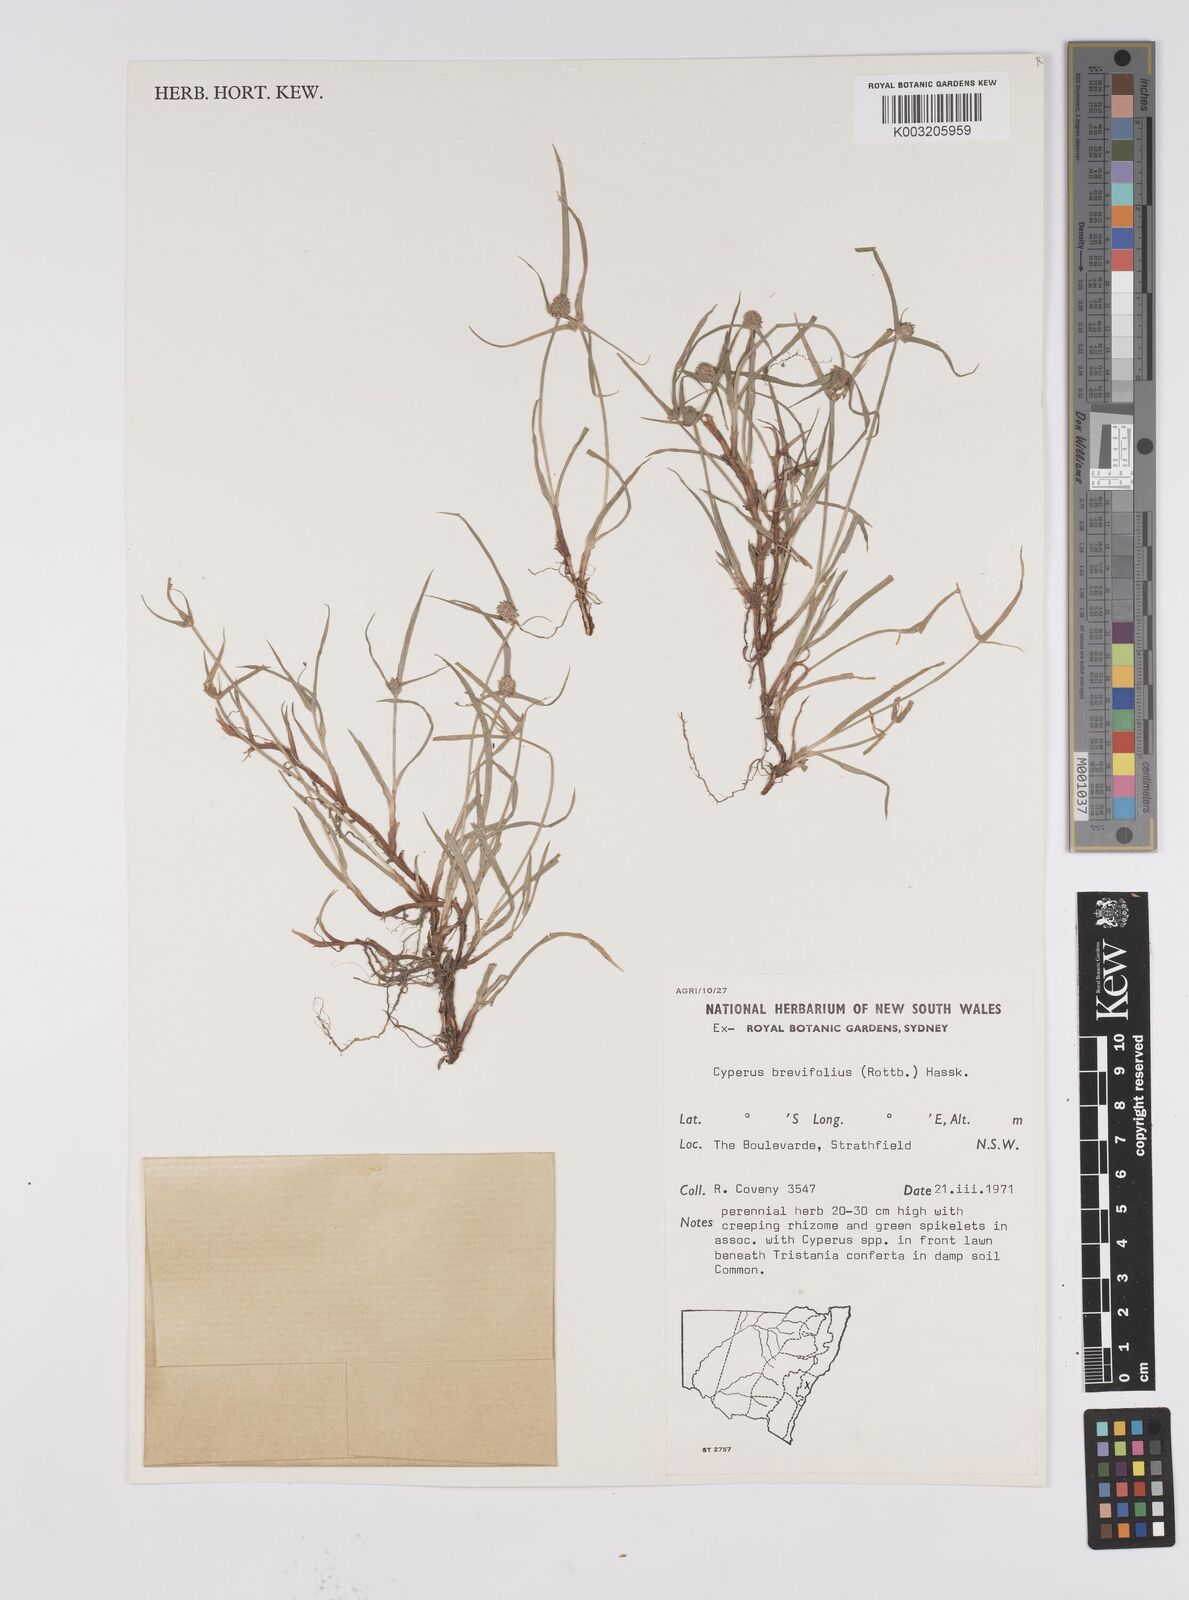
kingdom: Plantae
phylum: Tracheophyta
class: Liliopsida
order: Poales
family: Cyperaceae
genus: Cyperus
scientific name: Cyperus brevifolius
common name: Globe kyllinga
